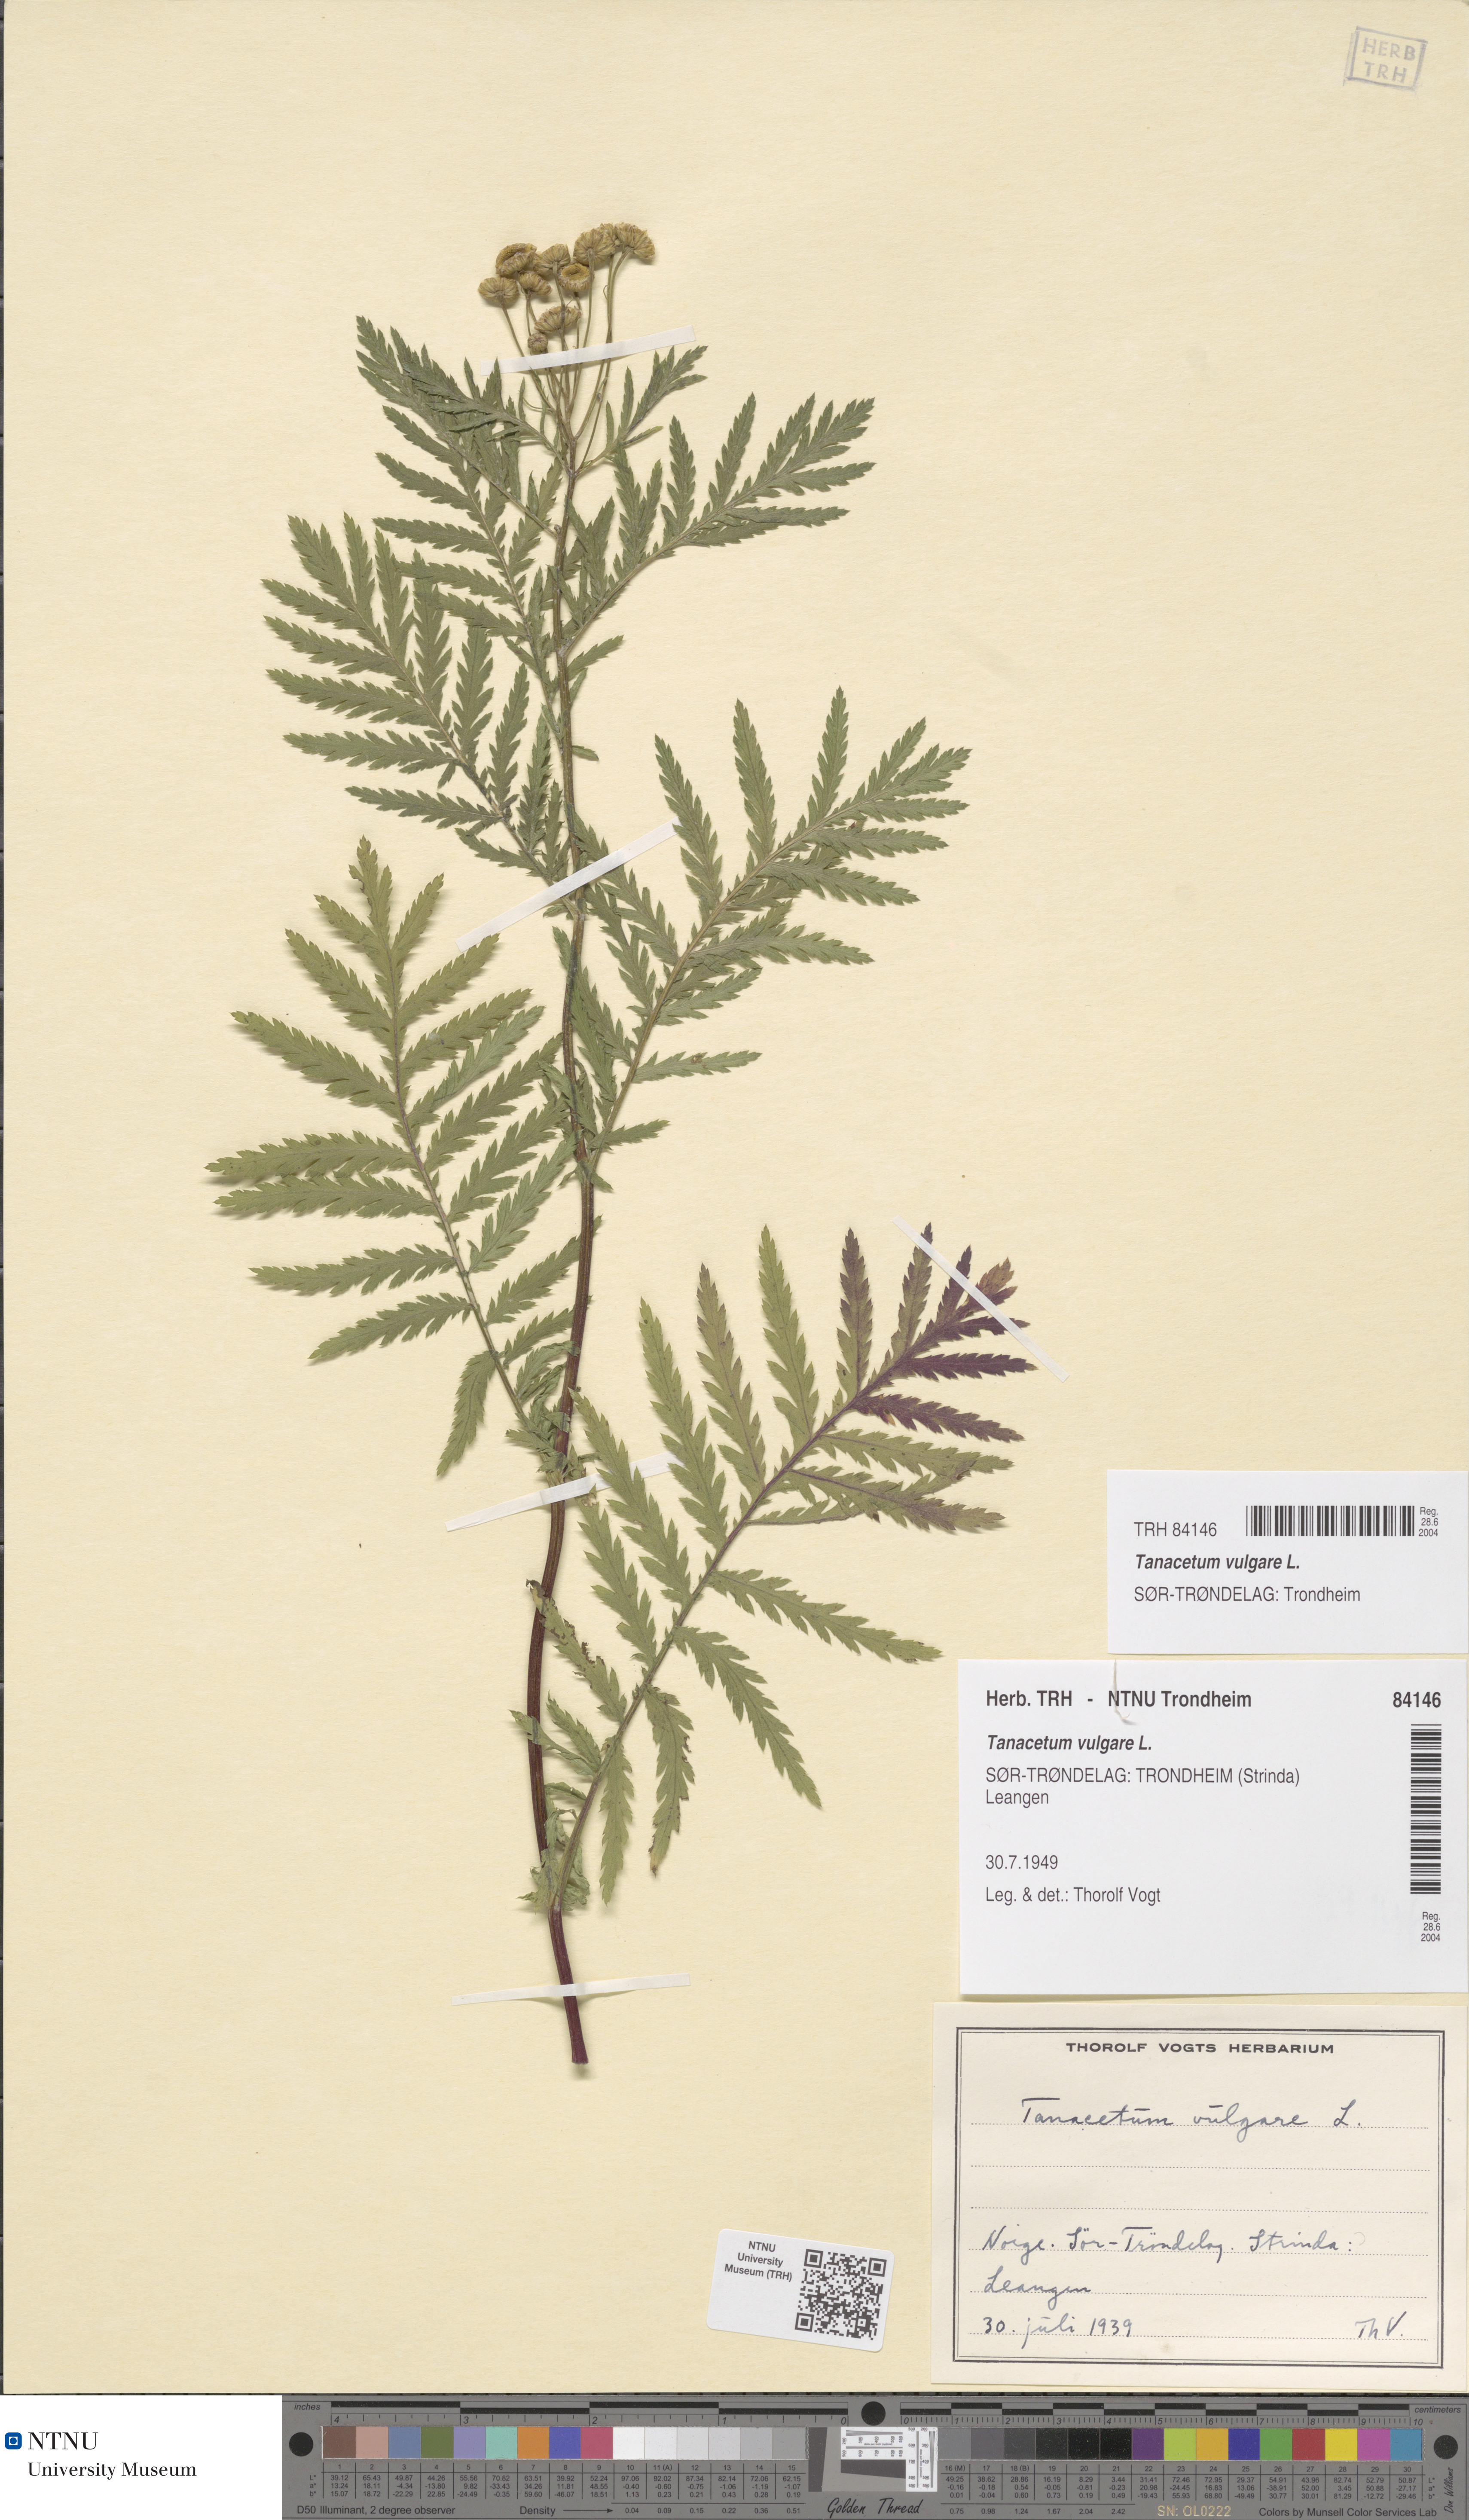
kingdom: Plantae
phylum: Tracheophyta
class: Magnoliopsida
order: Asterales
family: Asteraceae
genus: Tanacetum
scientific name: Tanacetum vulgare
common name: Common tansy
